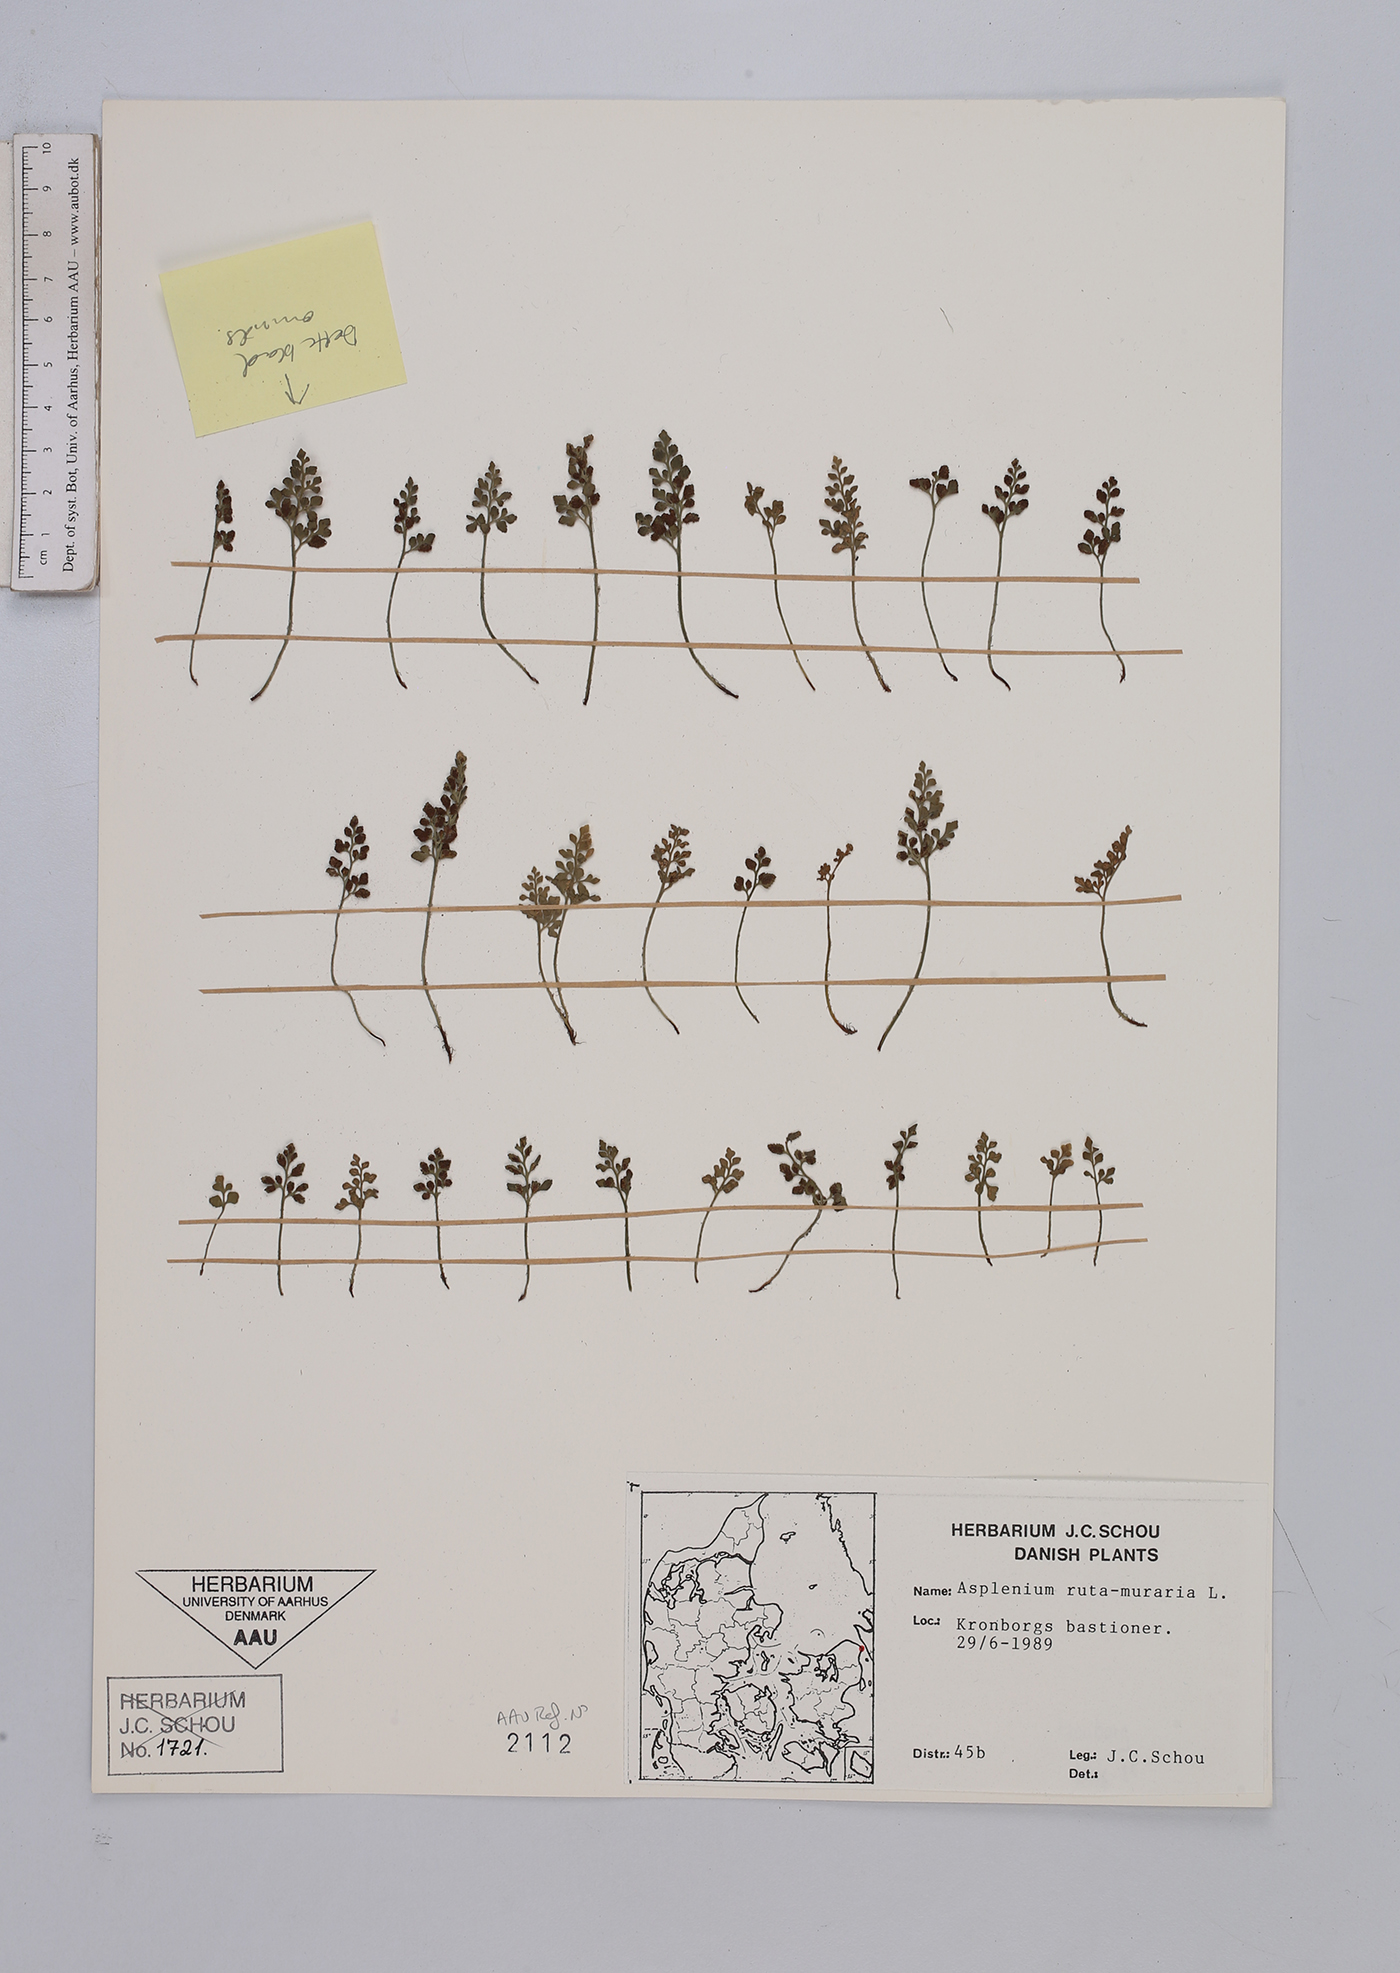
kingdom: Plantae
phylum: Tracheophyta
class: Polypodiopsida
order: Polypodiales
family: Aspleniaceae
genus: Asplenium
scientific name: Asplenium ruta-muraria
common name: Wall-rue
